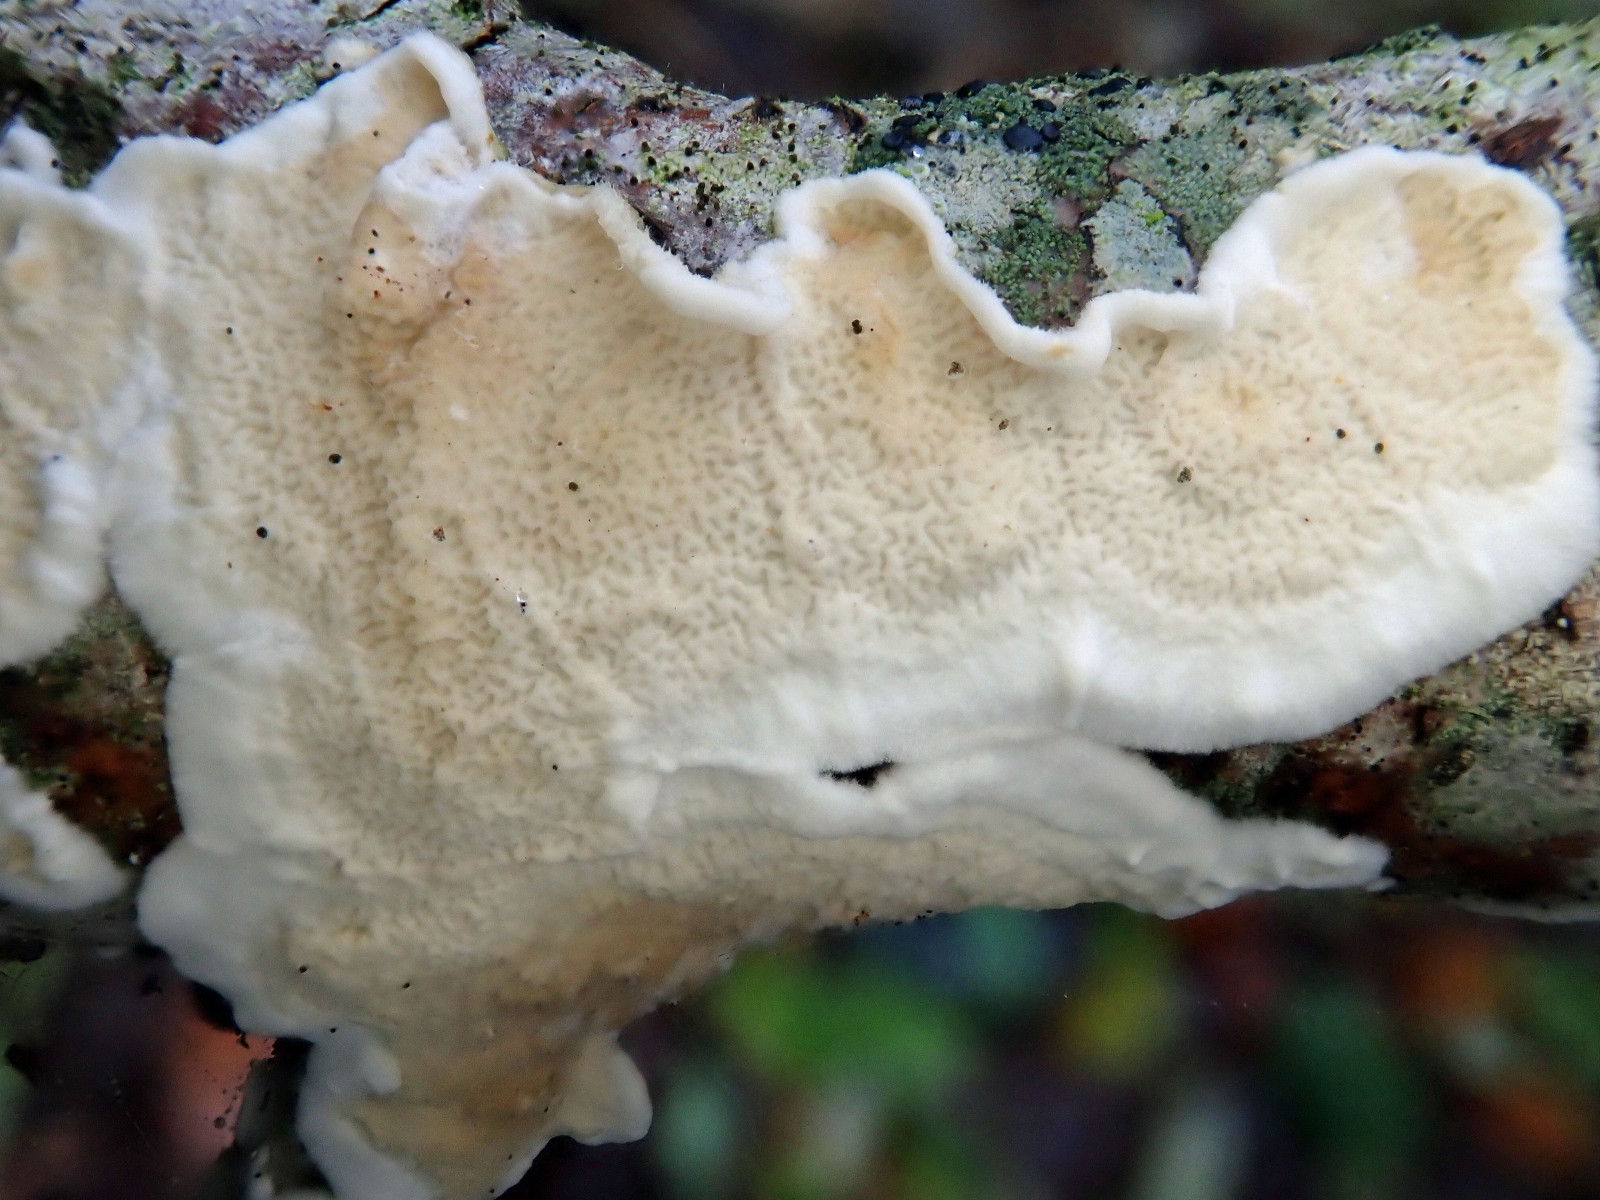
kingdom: Fungi
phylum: Basidiomycota
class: Agaricomycetes
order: Polyporales
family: Irpicaceae
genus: Byssomerulius
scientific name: Byssomerulius corium
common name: læder-åresvamp
